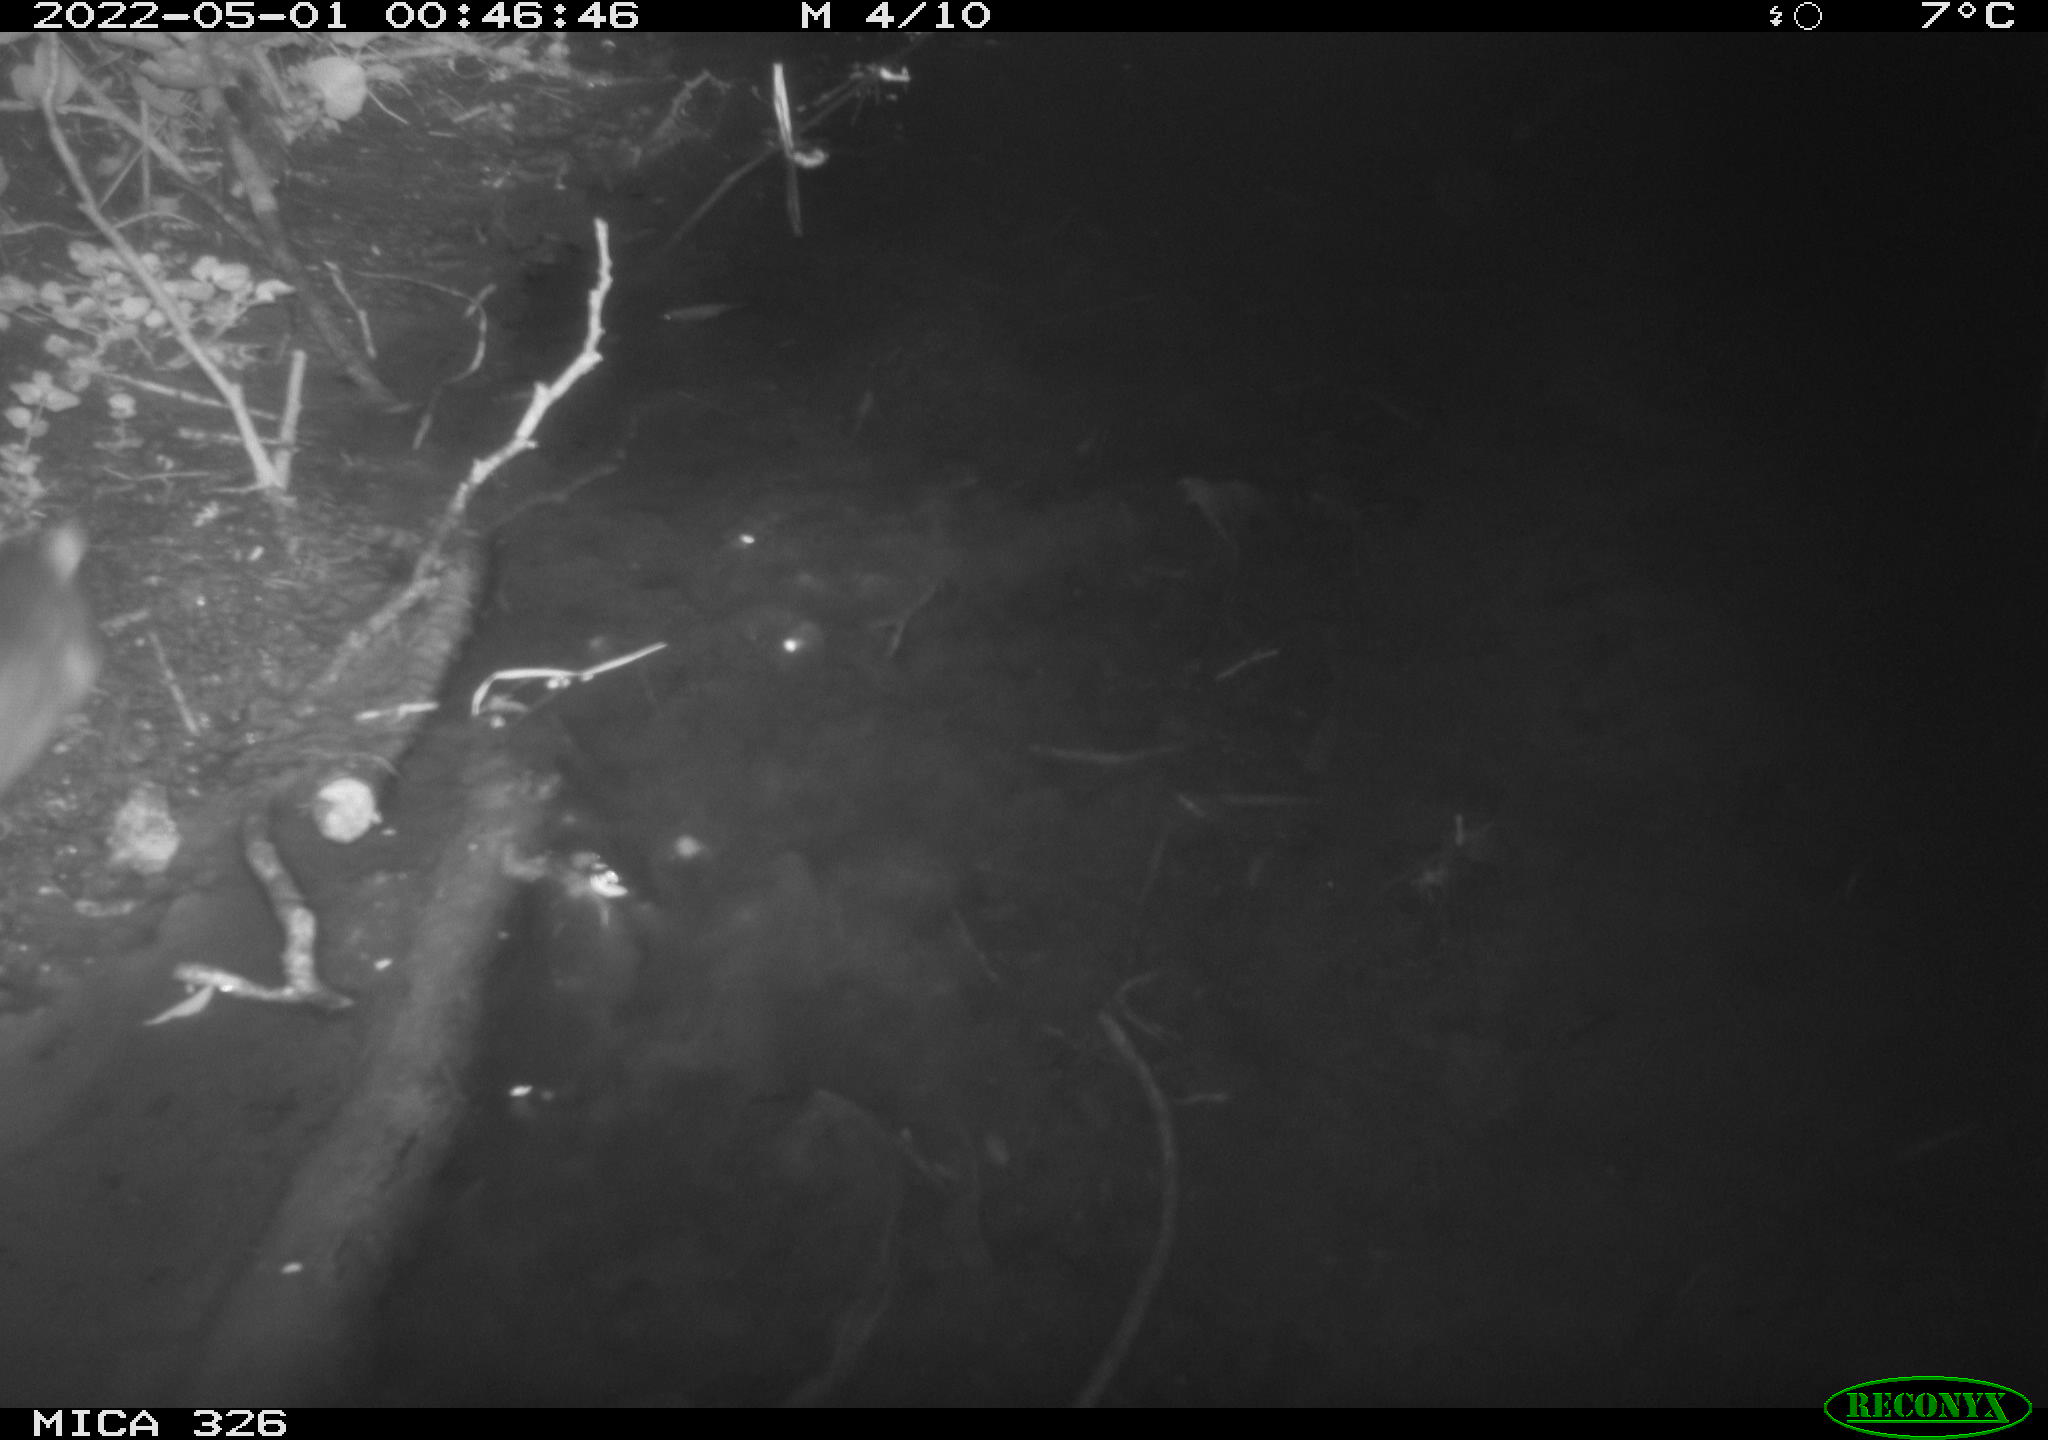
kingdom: Animalia
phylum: Chordata
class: Mammalia
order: Rodentia
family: Muridae
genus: Rattus
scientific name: Rattus norvegicus
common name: Brown rat
